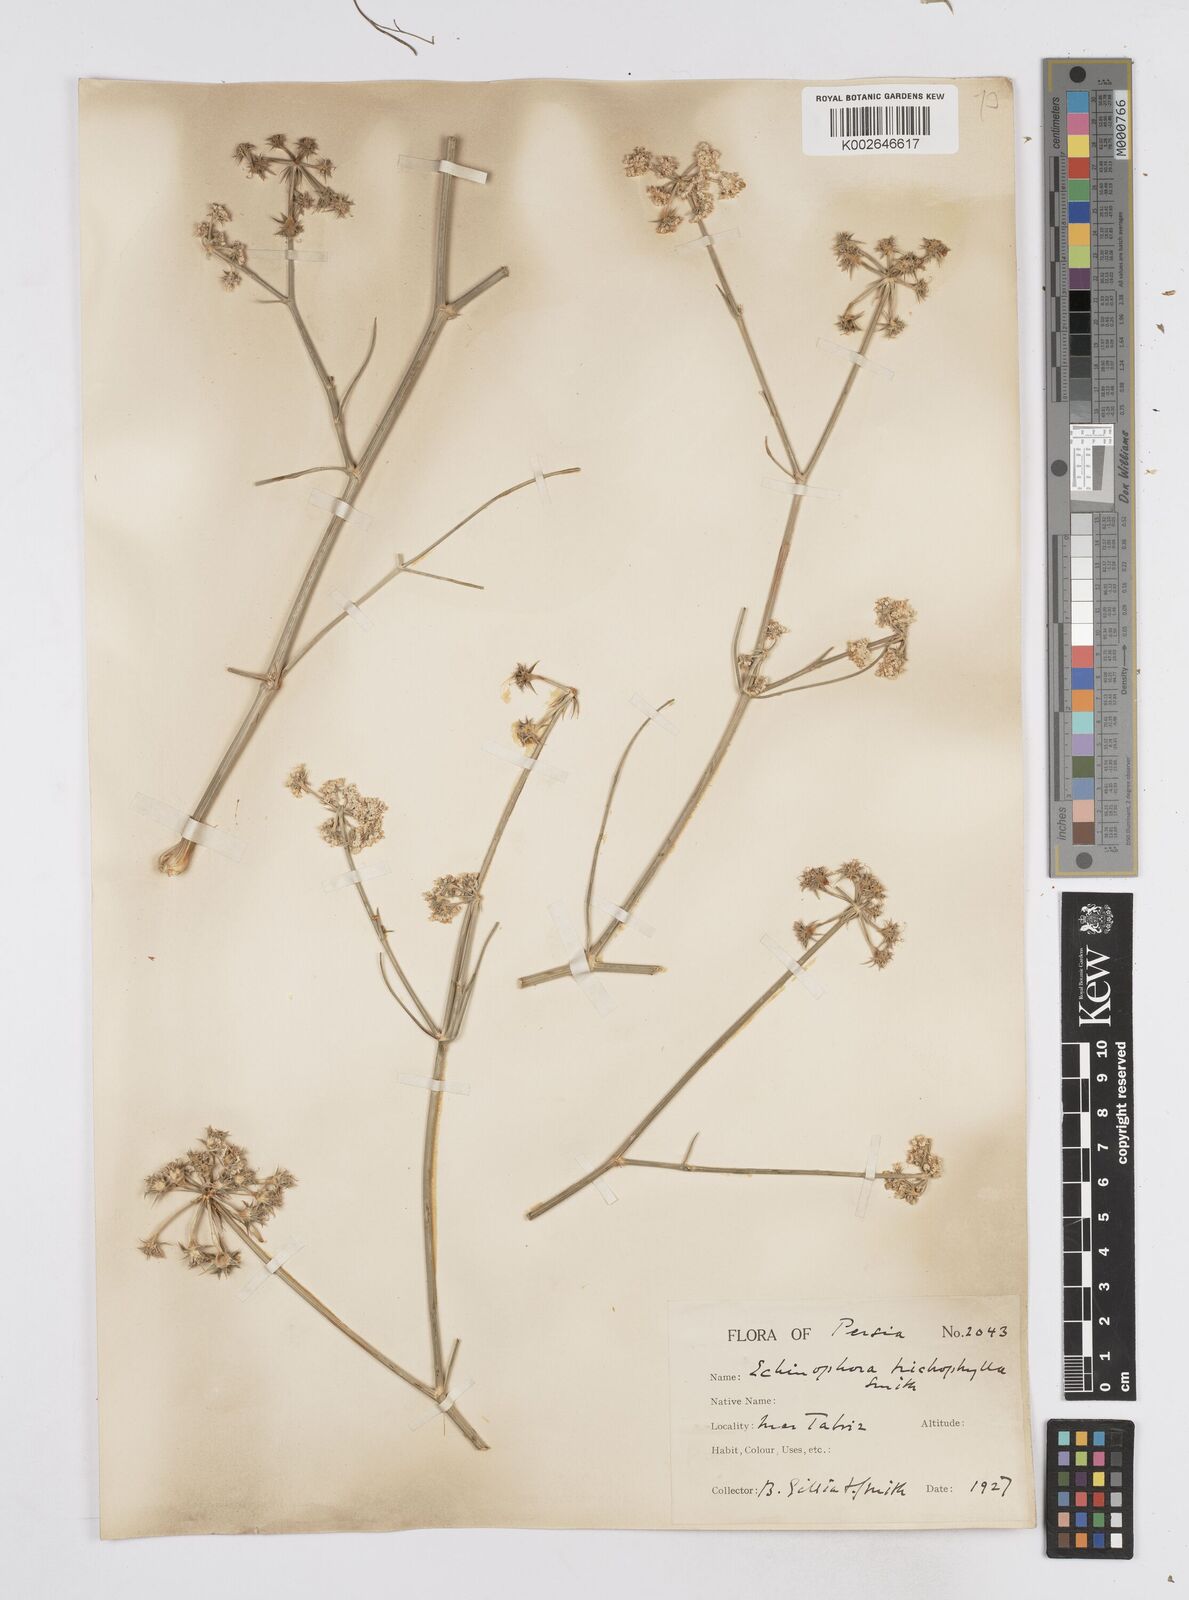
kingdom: Plantae
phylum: Tracheophyta
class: Magnoliopsida
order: Apiales
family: Apiaceae
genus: Echinophora
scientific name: Echinophora trichophylla
